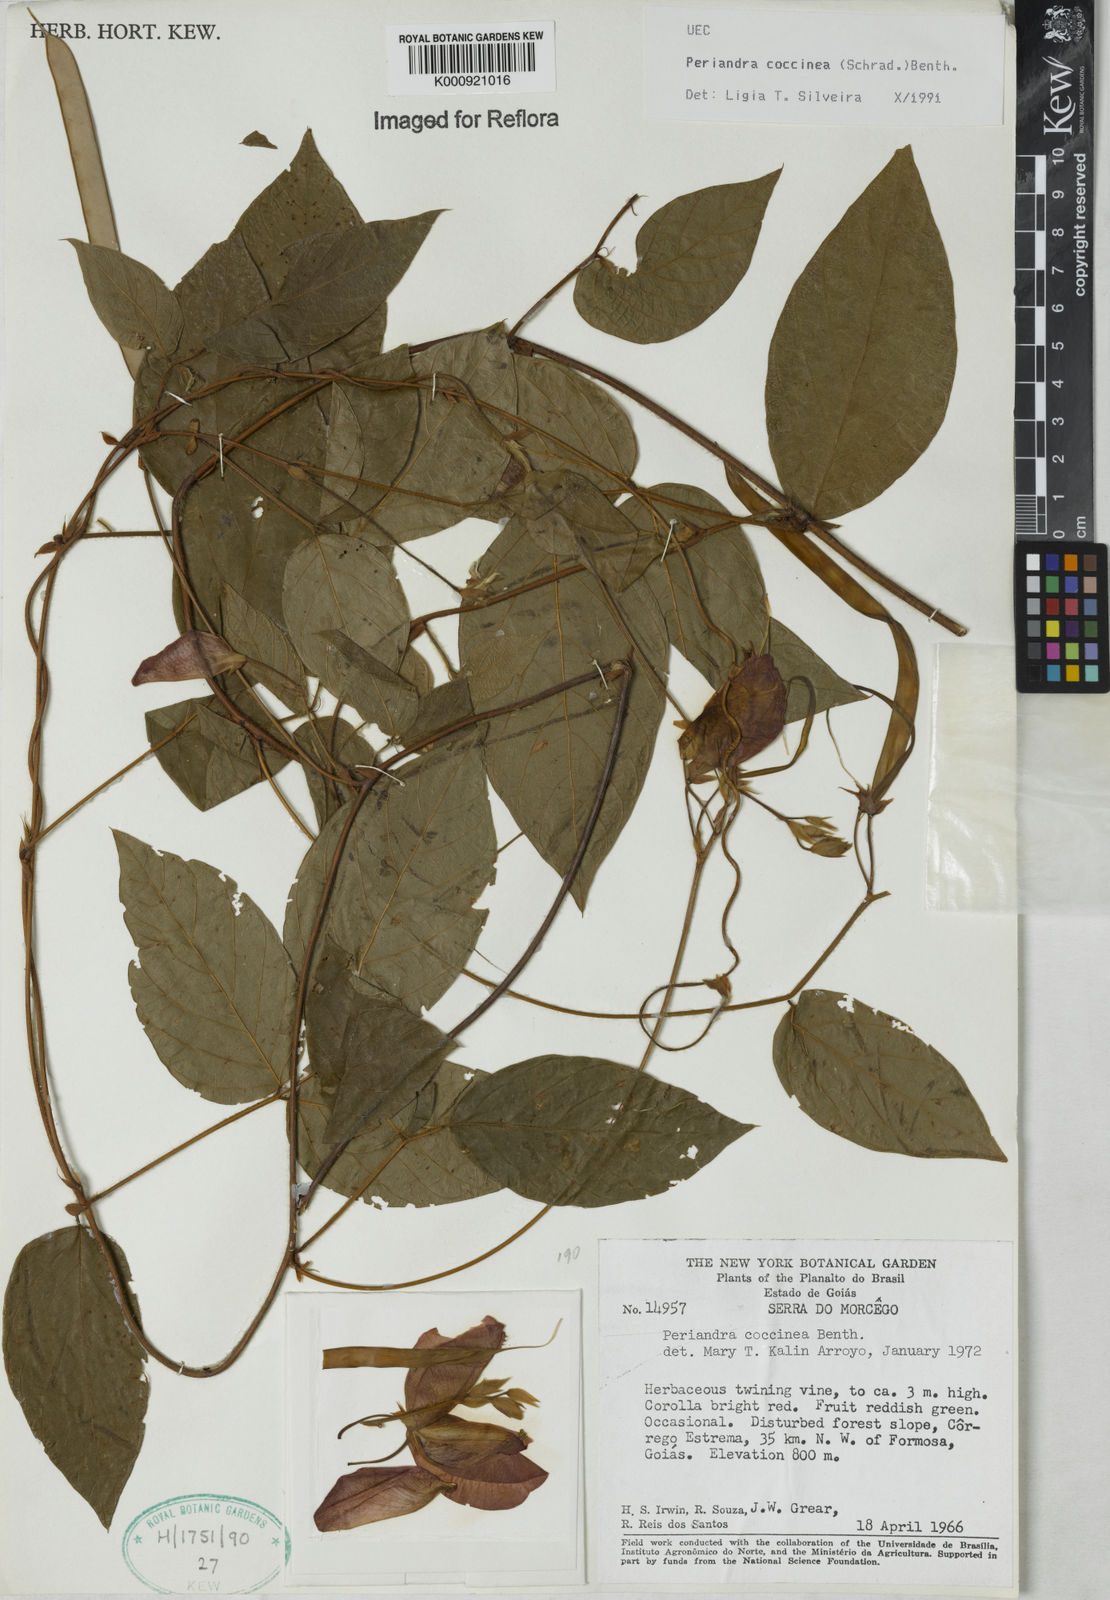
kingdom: Plantae
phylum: Tracheophyta
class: Magnoliopsida
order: Fabales
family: Fabaceae
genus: Periandra
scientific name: Periandra coccinea
